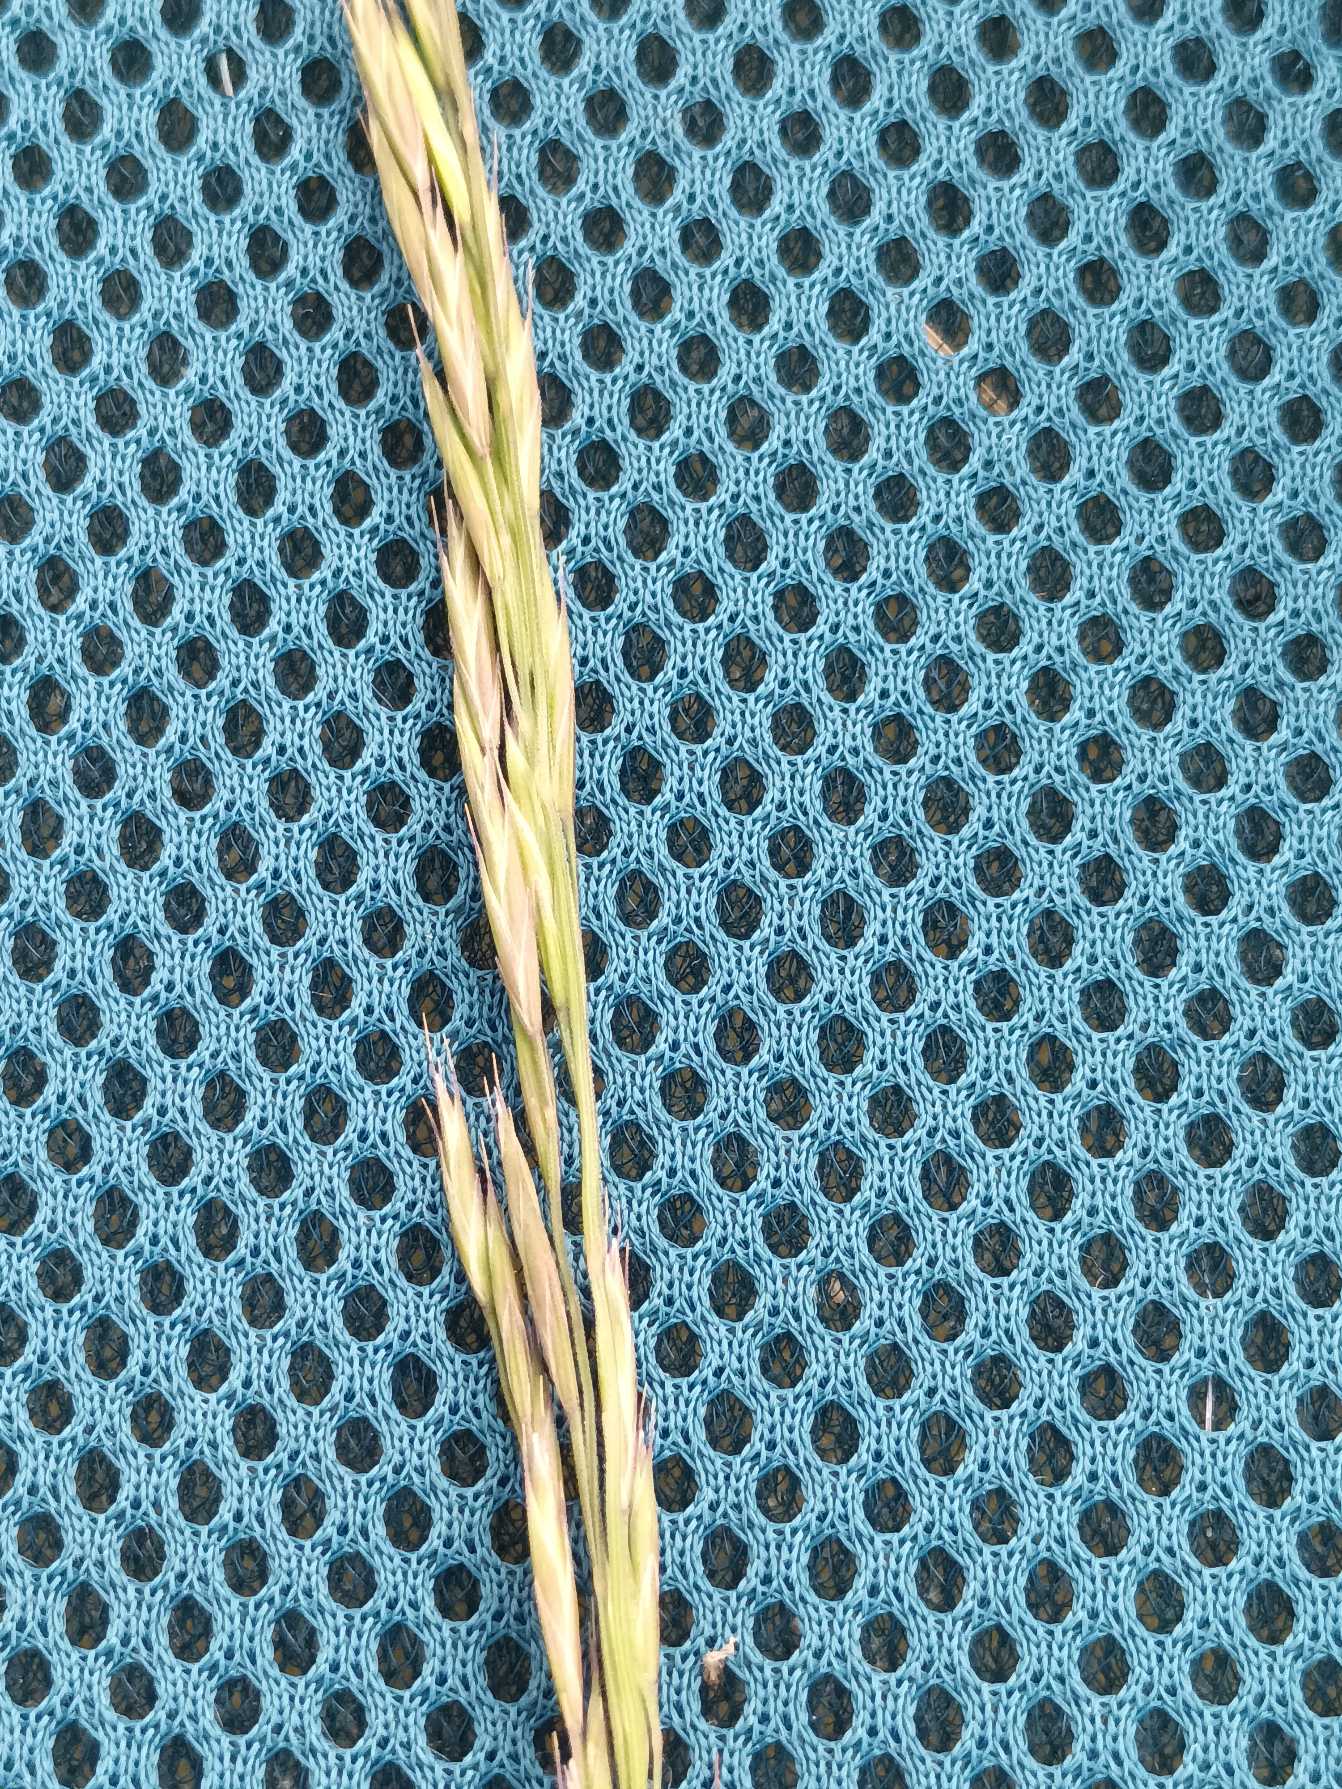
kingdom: Plantae
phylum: Tracheophyta
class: Liliopsida
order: Poales
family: Poaceae
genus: Festuca
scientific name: Festuca rubra
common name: Rød svingel
